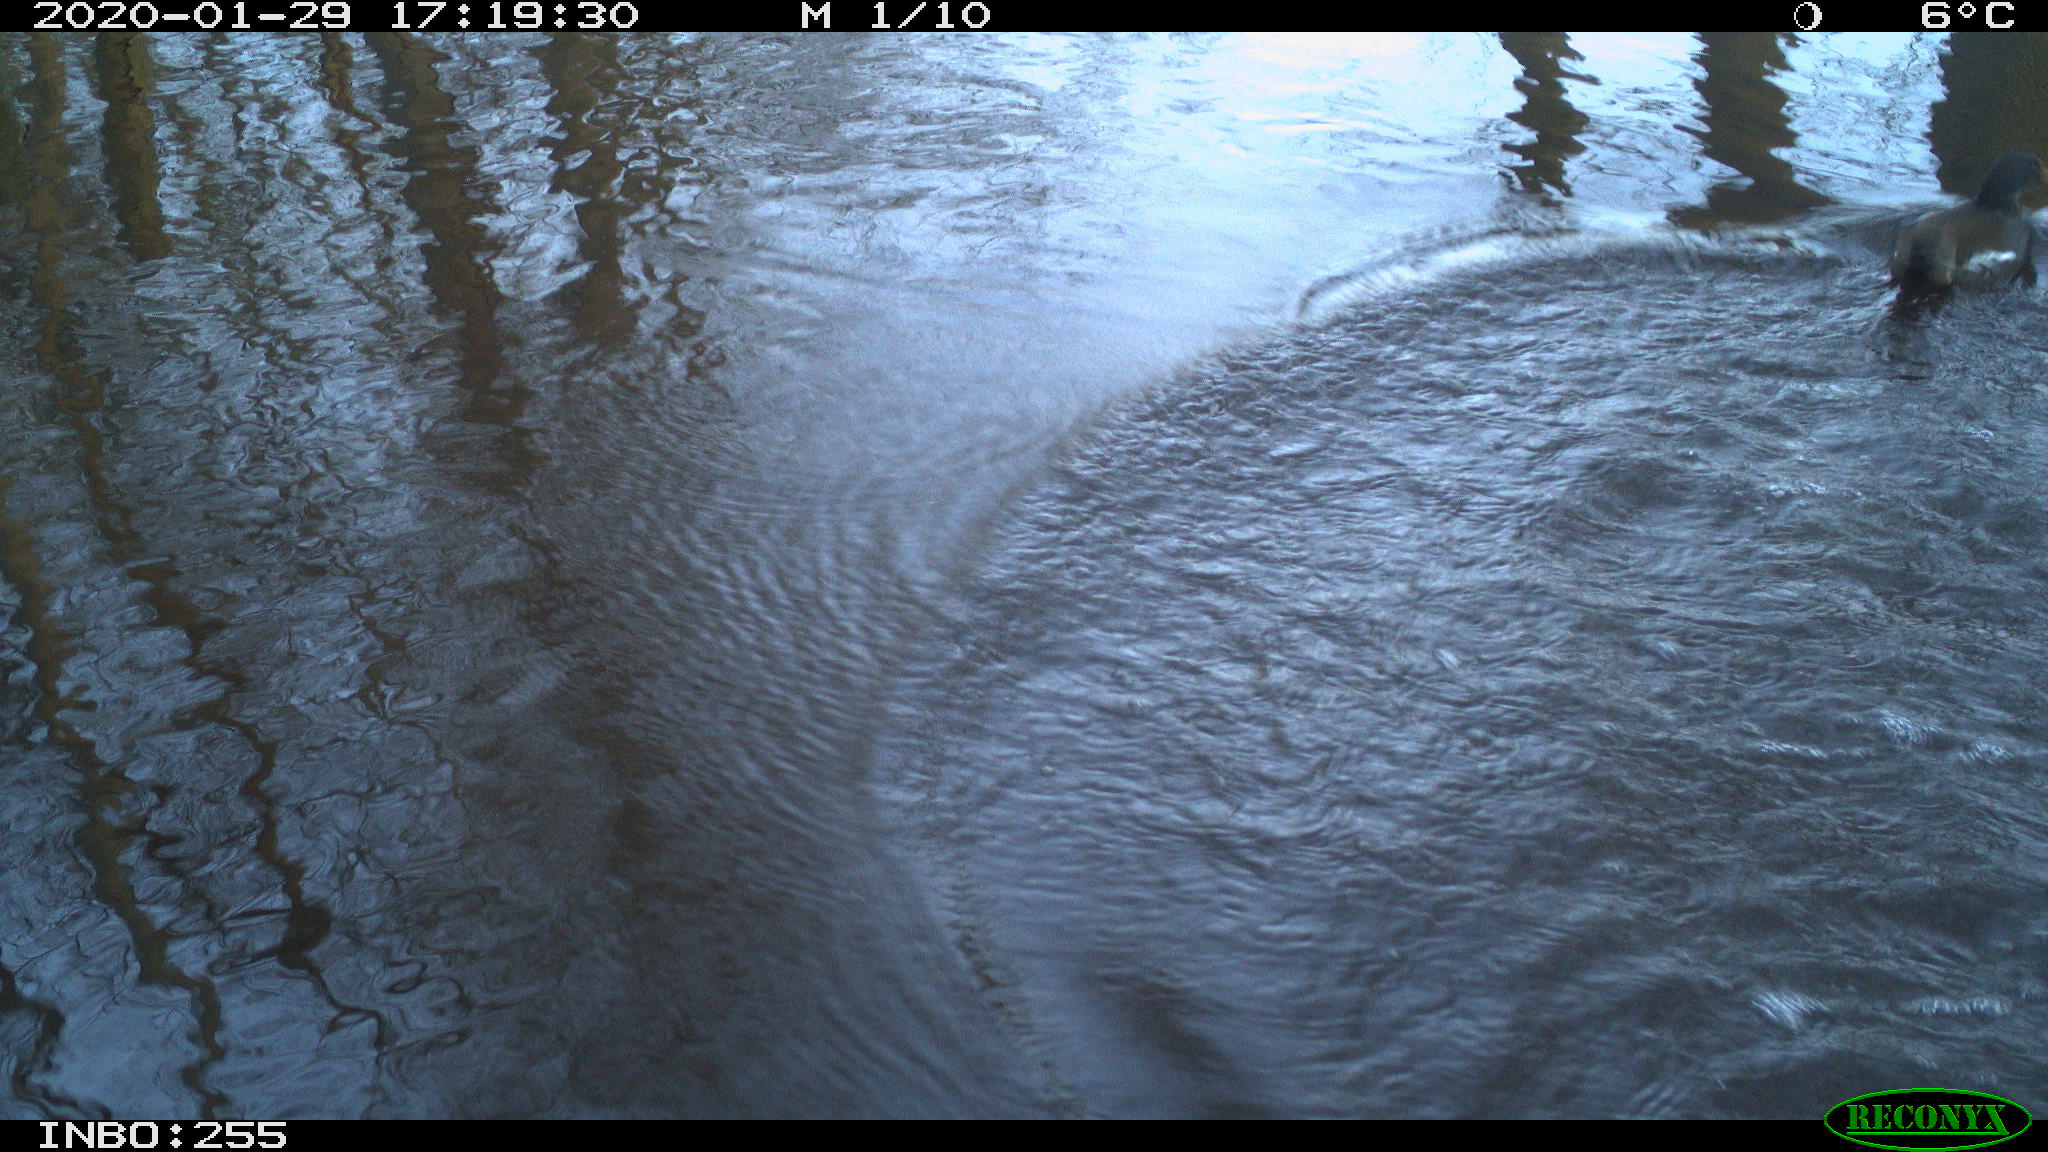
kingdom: Animalia
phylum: Chordata
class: Aves
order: Gruiformes
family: Rallidae
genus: Gallinula
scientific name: Gallinula chloropus
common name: Common moorhen
